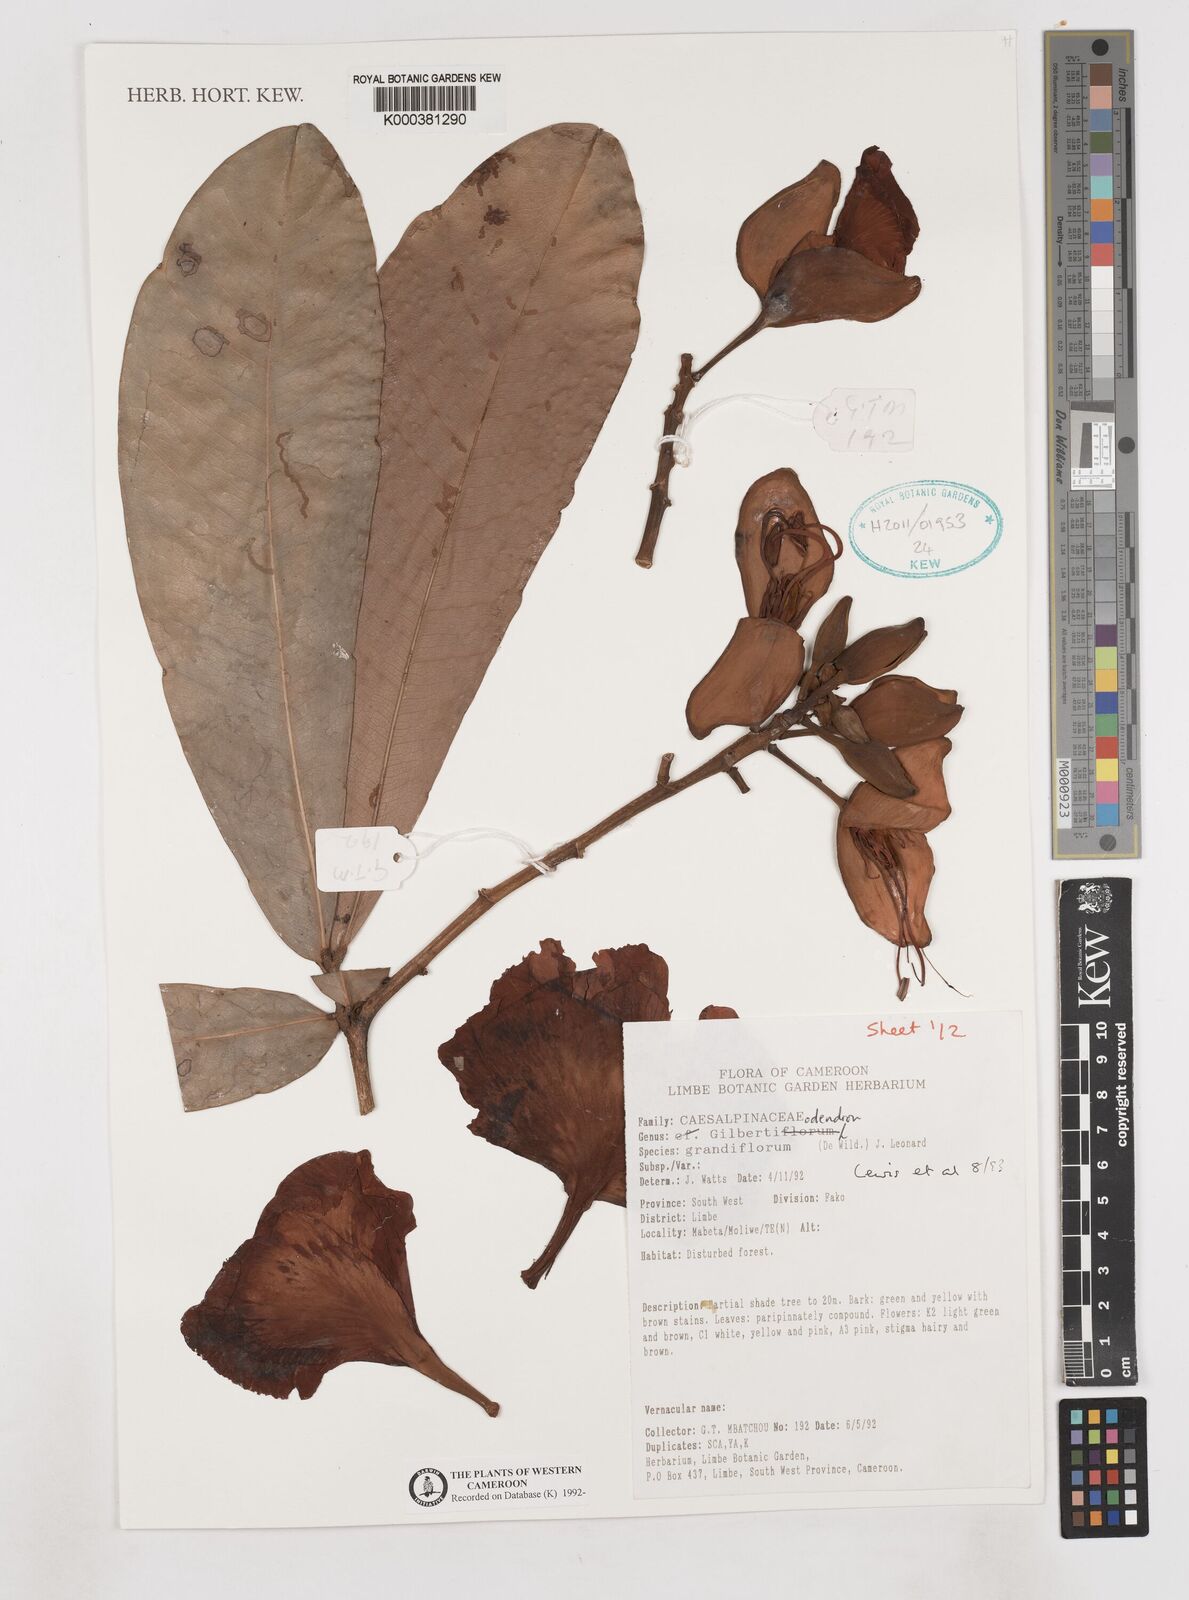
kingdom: Plantae
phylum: Tracheophyta
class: Magnoliopsida
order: Fabales
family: Fabaceae
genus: Gilbertiodendron
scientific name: Gilbertiodendron grandiflorum
